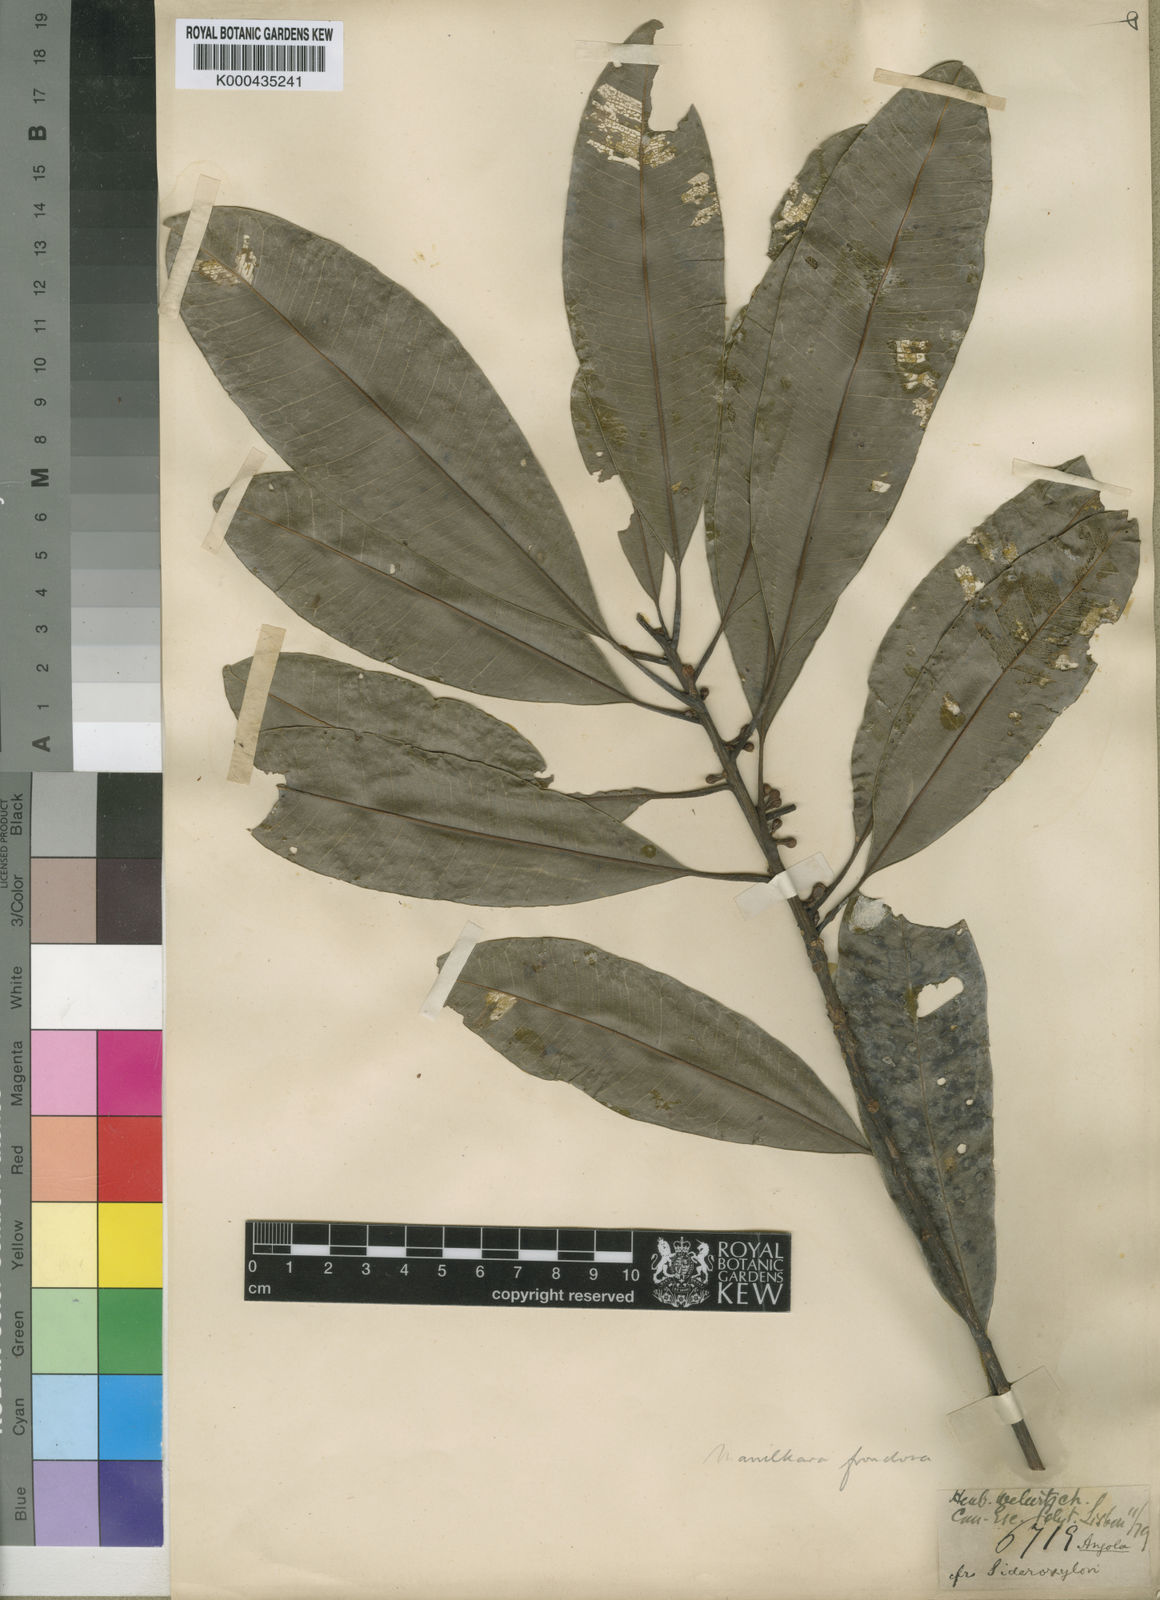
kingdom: Plantae
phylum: Tracheophyta
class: Magnoliopsida
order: Ericales
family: Sapotaceae
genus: Manilkara
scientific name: Manilkara frondosa
